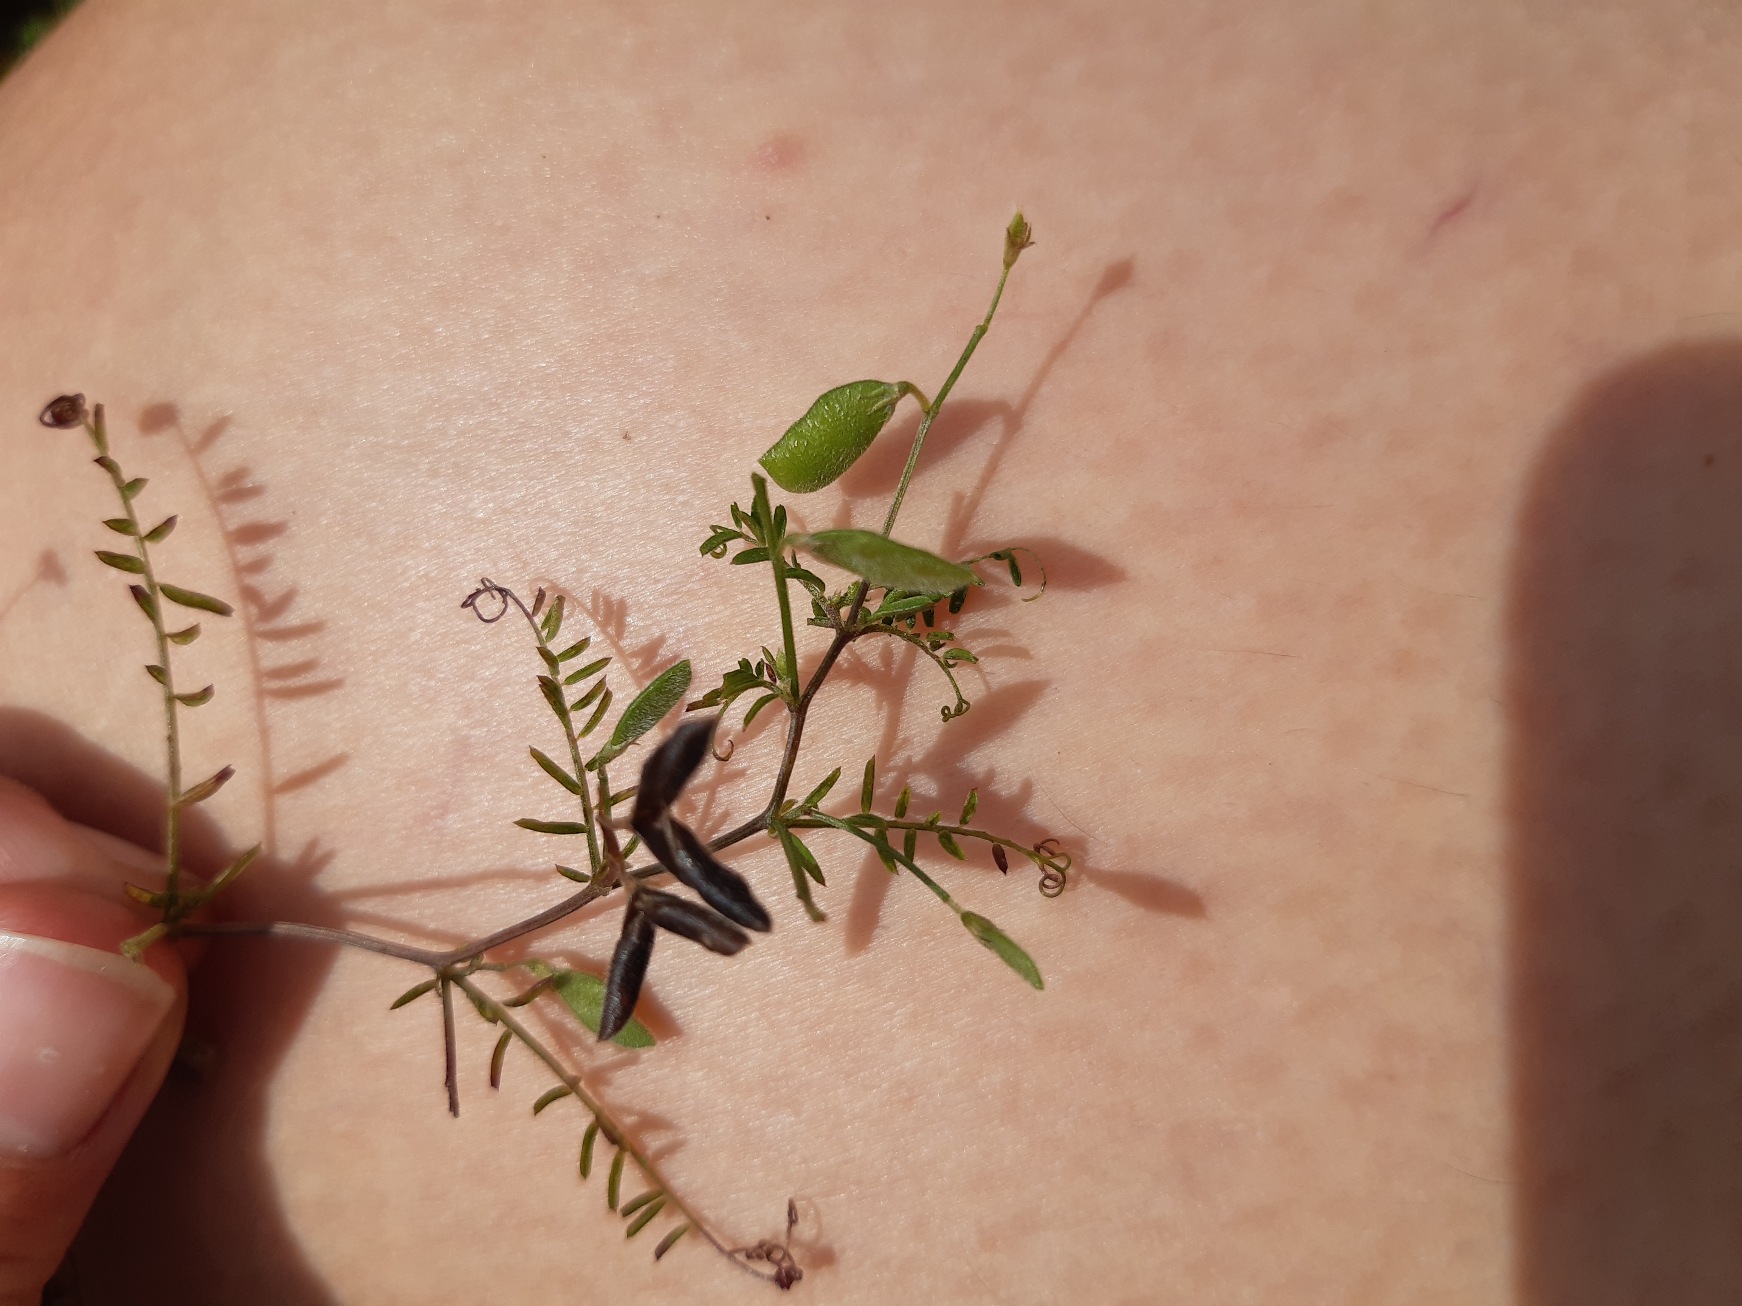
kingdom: Plantae
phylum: Tracheophyta
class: Magnoliopsida
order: Fabales
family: Fabaceae
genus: Vicia
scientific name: Vicia hirsuta
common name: Tofrøet vikke
